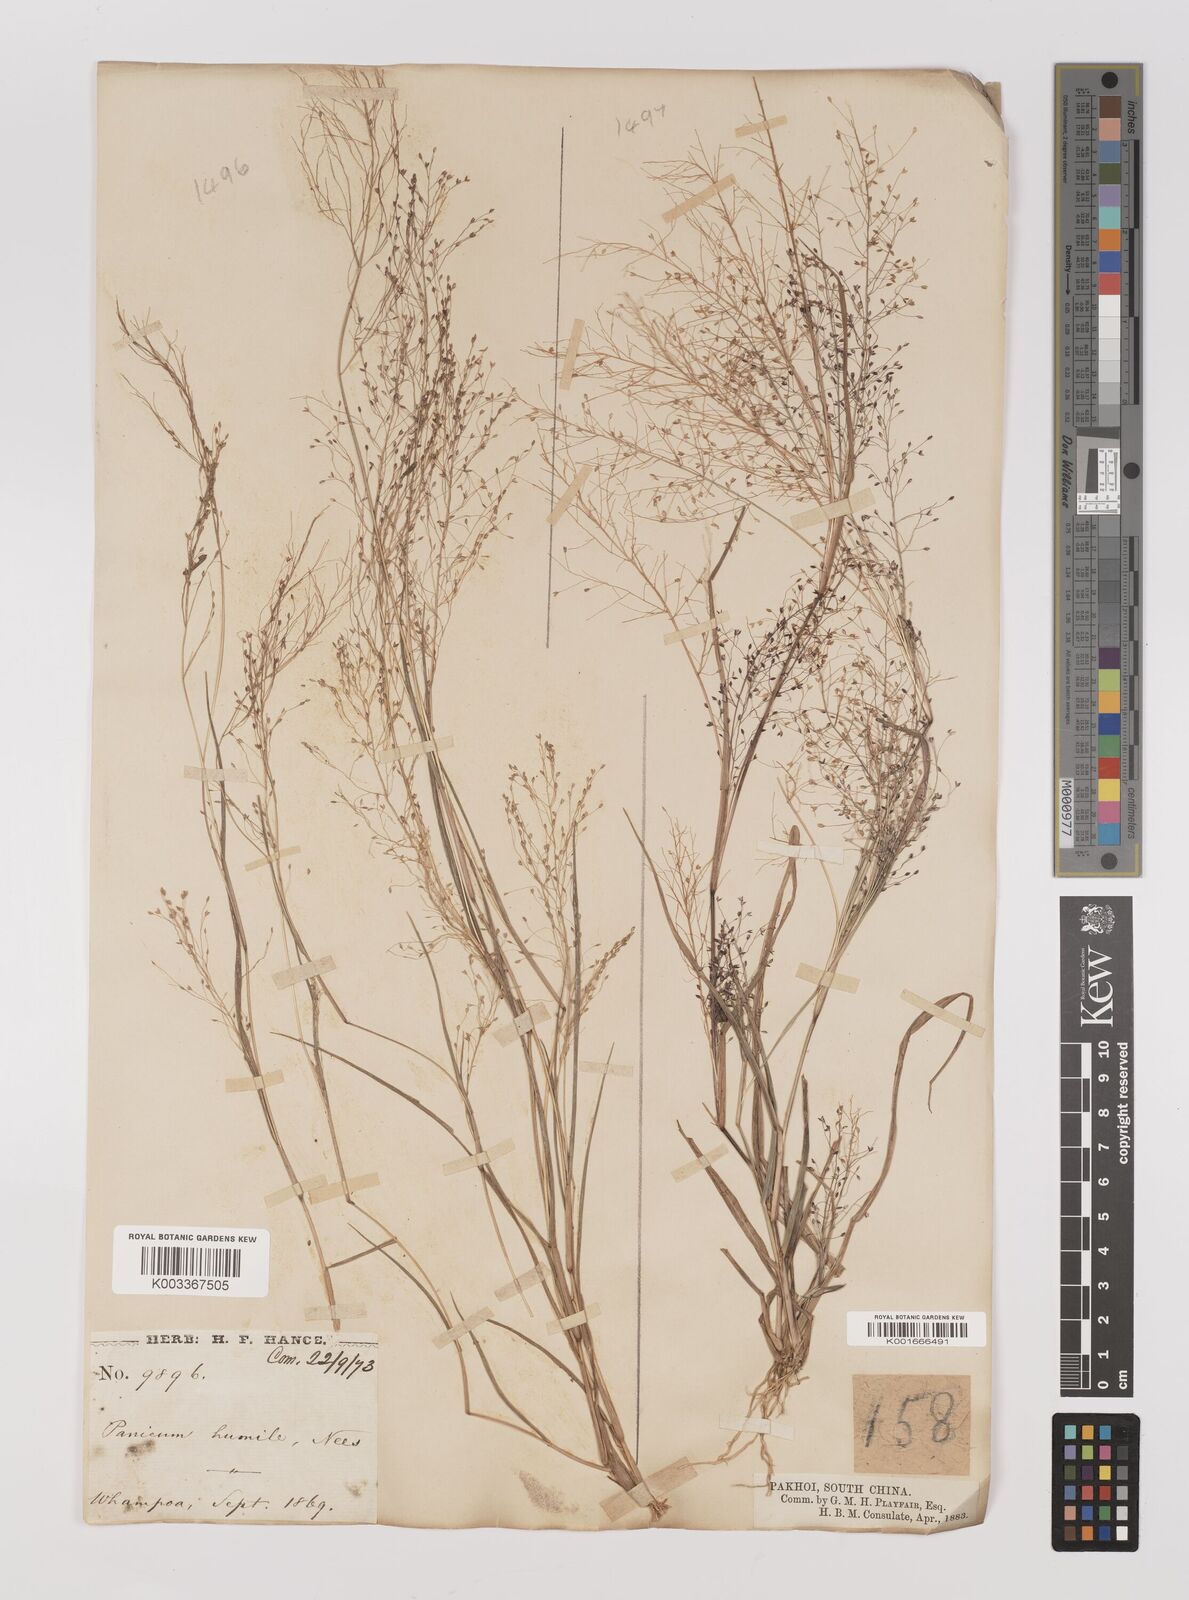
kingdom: Plantae
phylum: Tracheophyta
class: Liliopsida
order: Poales
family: Poaceae
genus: Panicum
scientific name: Panicum
